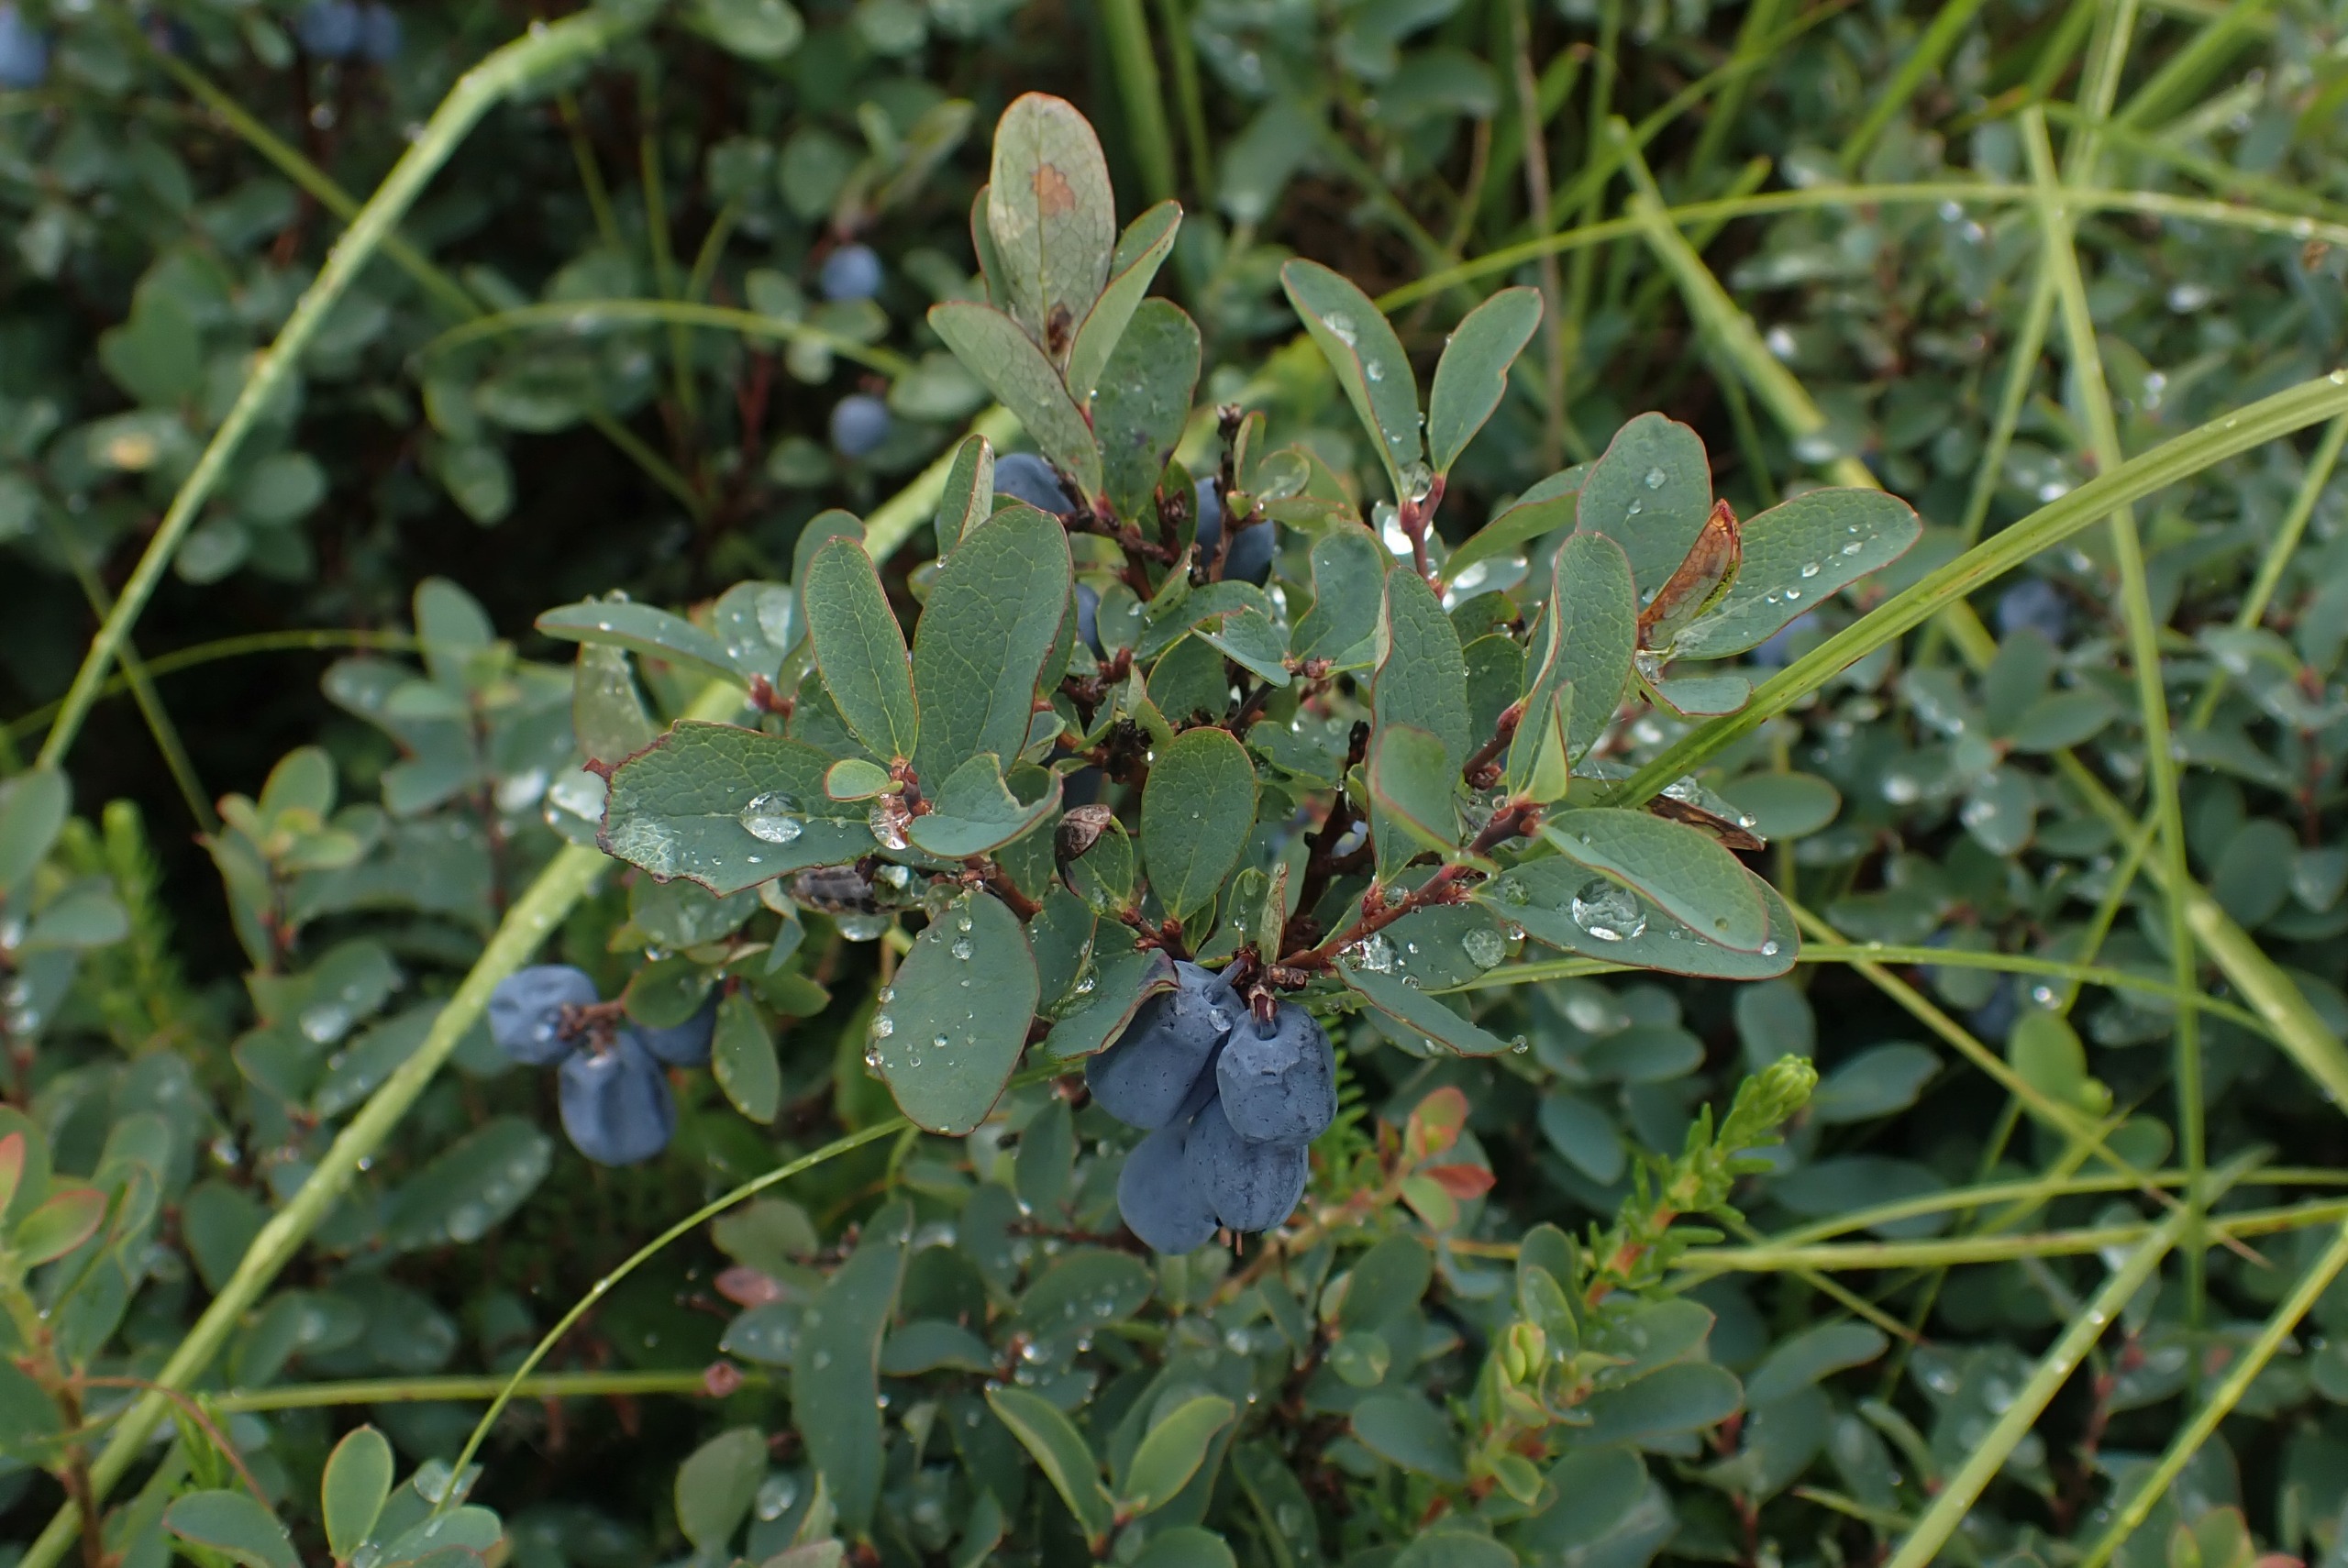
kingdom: Plantae
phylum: Tracheophyta
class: Magnoliopsida
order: Ericales
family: Ericaceae
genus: Vaccinium
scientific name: Vaccinium uliginosum
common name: Mose-bølle
